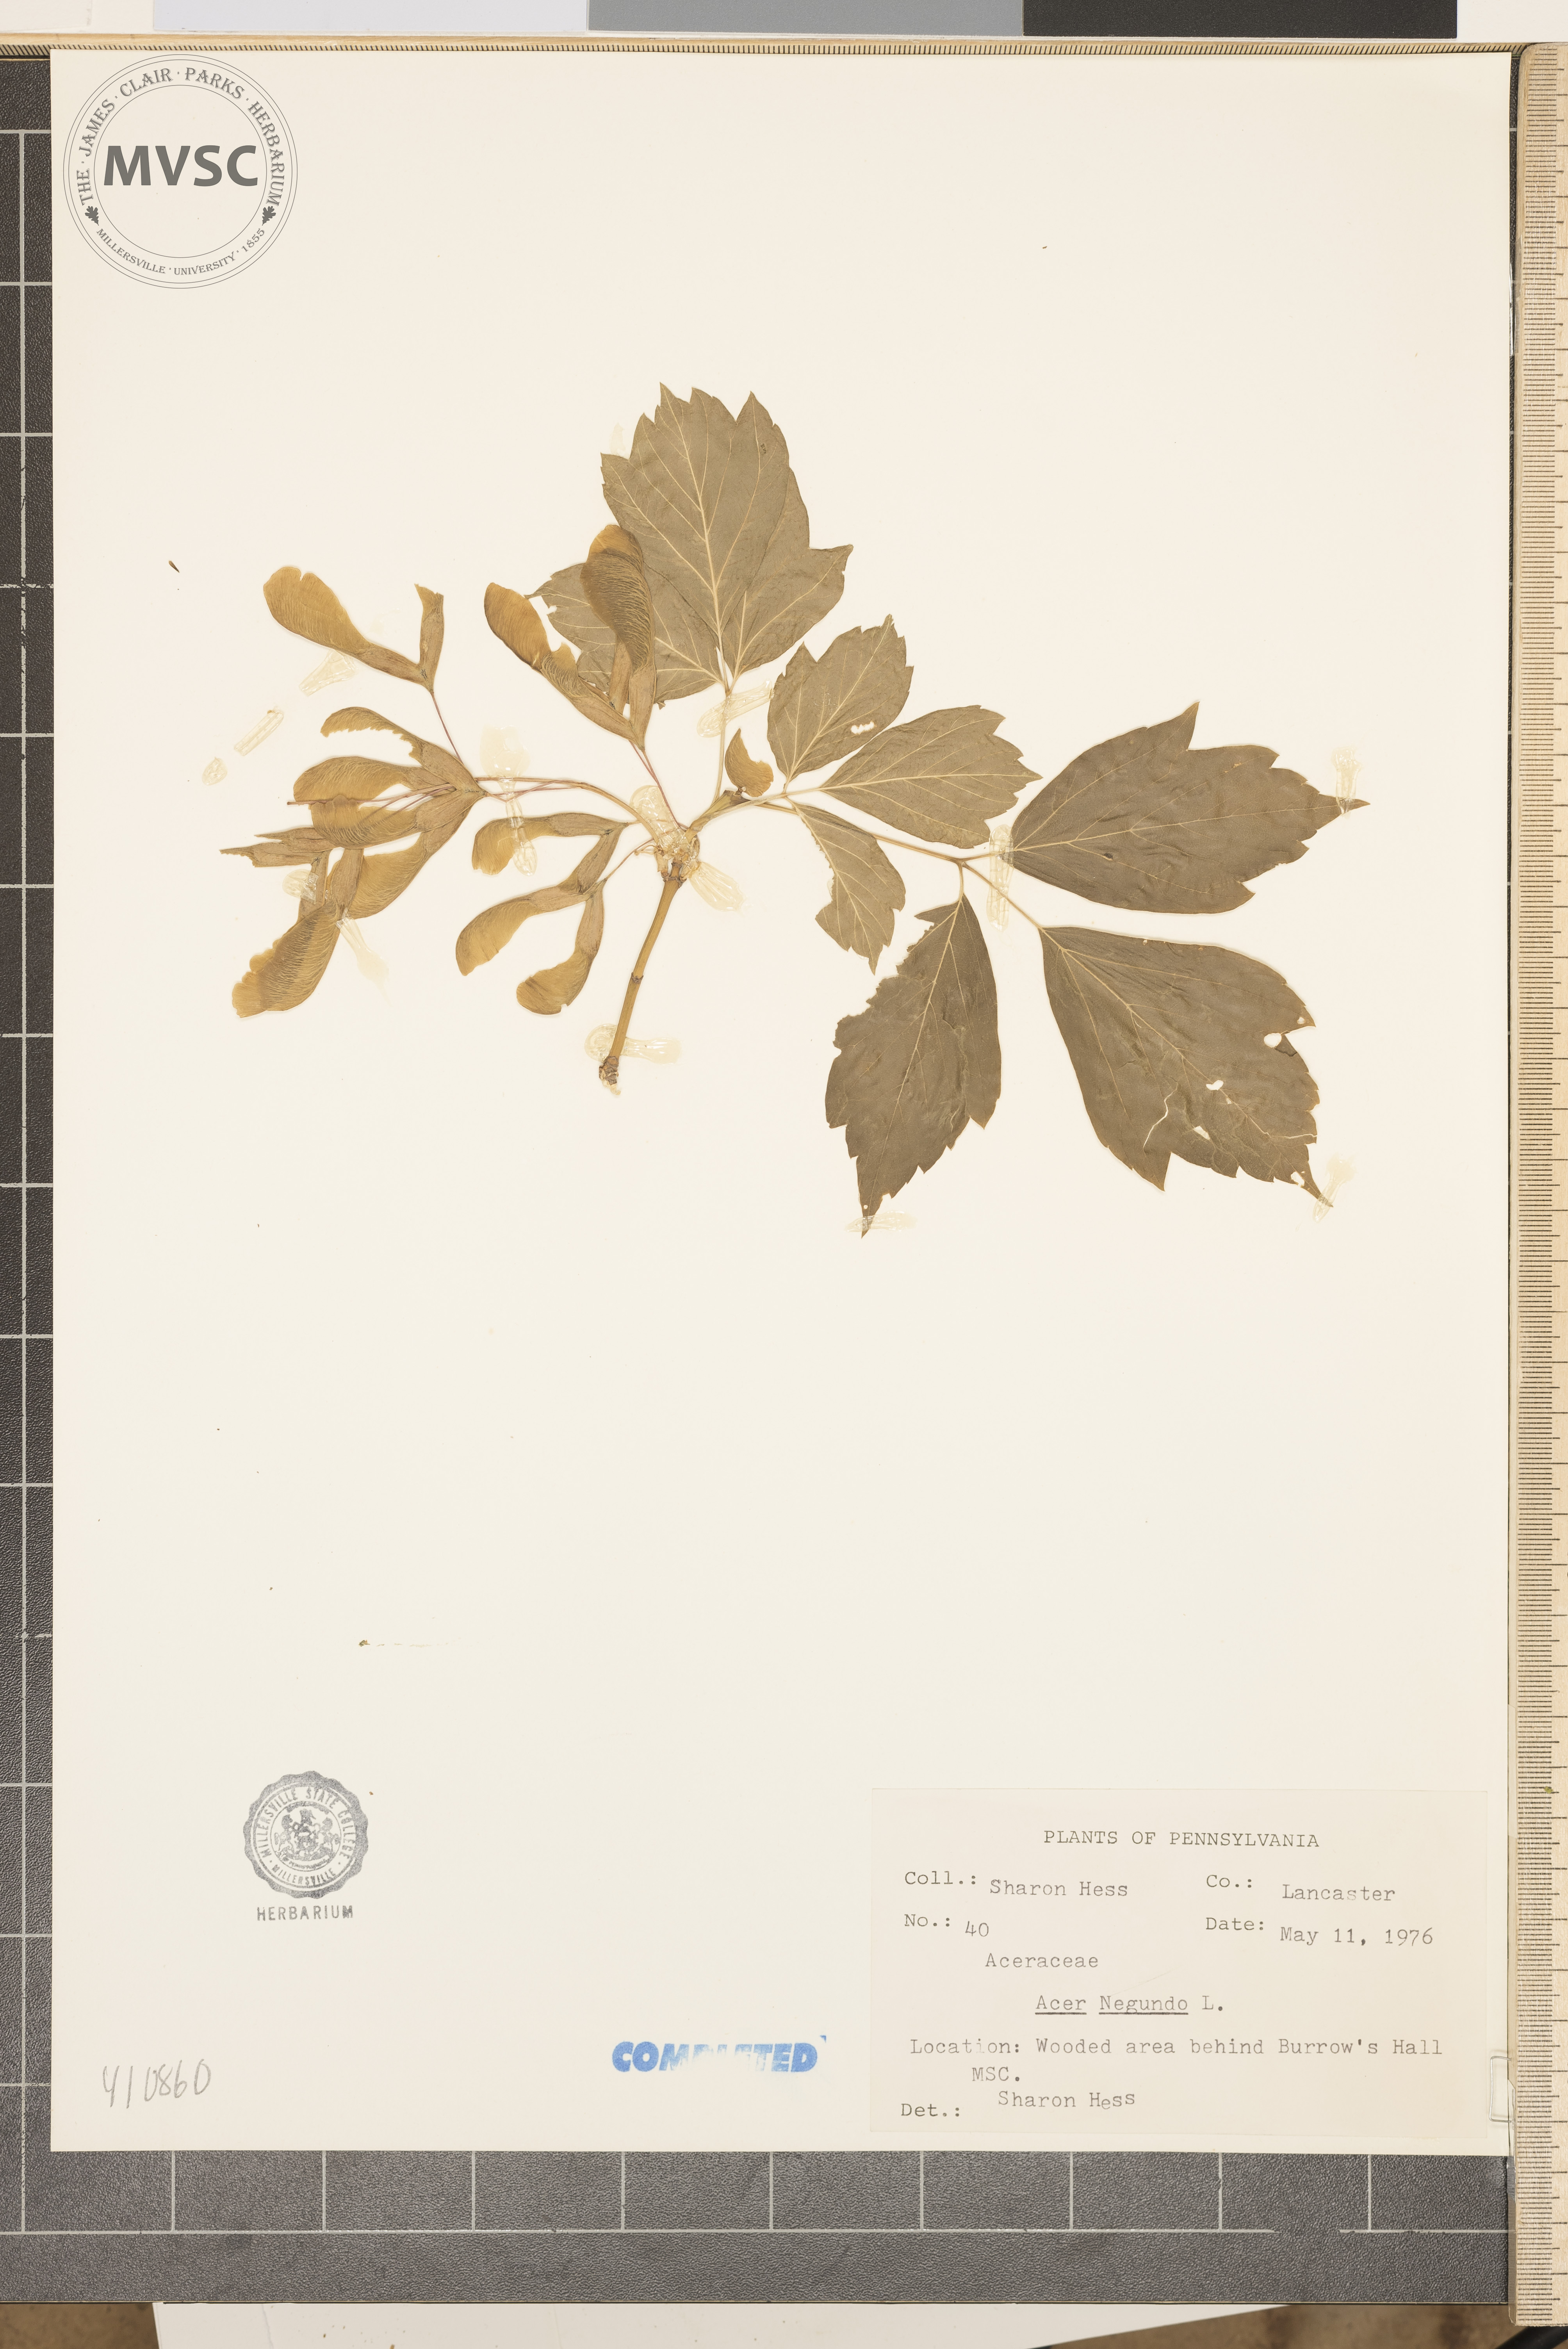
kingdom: Plantae
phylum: Tracheophyta
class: Magnoliopsida
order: Sapindales
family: Sapindaceae
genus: Acer
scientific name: Acer negundo
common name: Ashleaf maple
